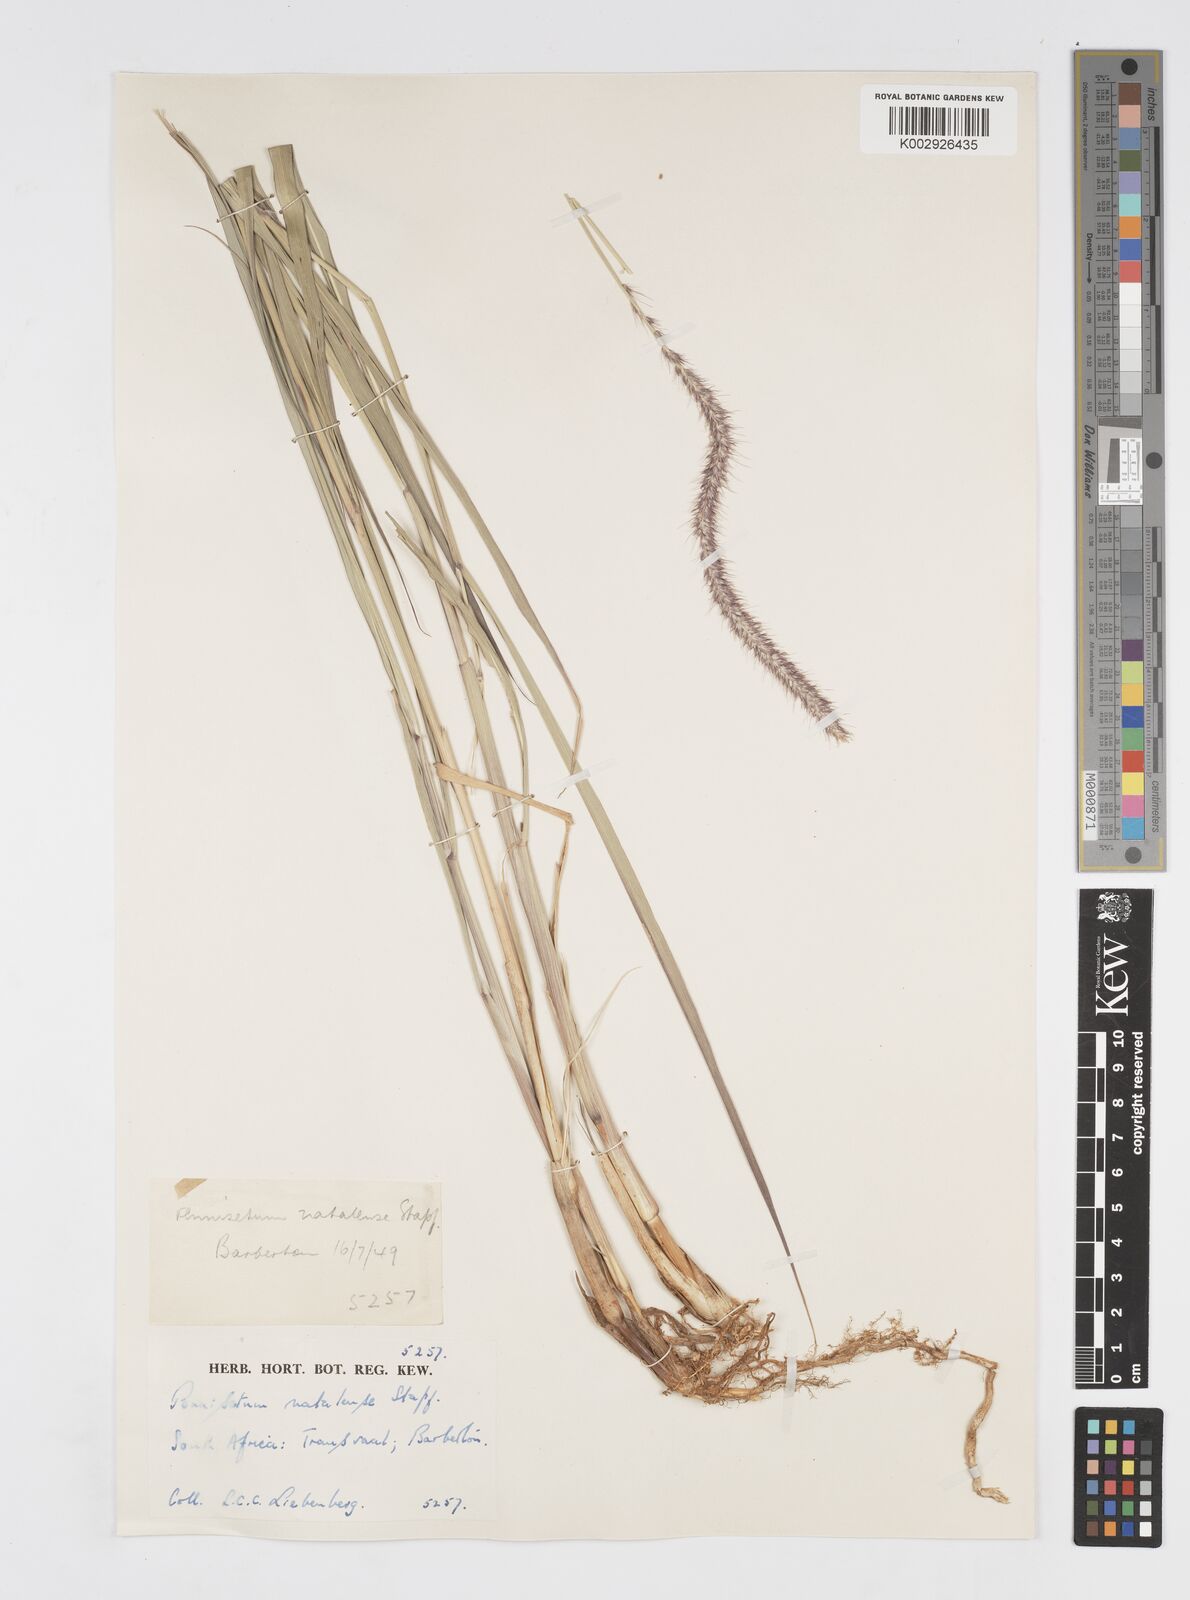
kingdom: Plantae
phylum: Tracheophyta
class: Liliopsida
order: Poales
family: Poaceae
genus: Cenchrus
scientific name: Cenchrus caudatus
